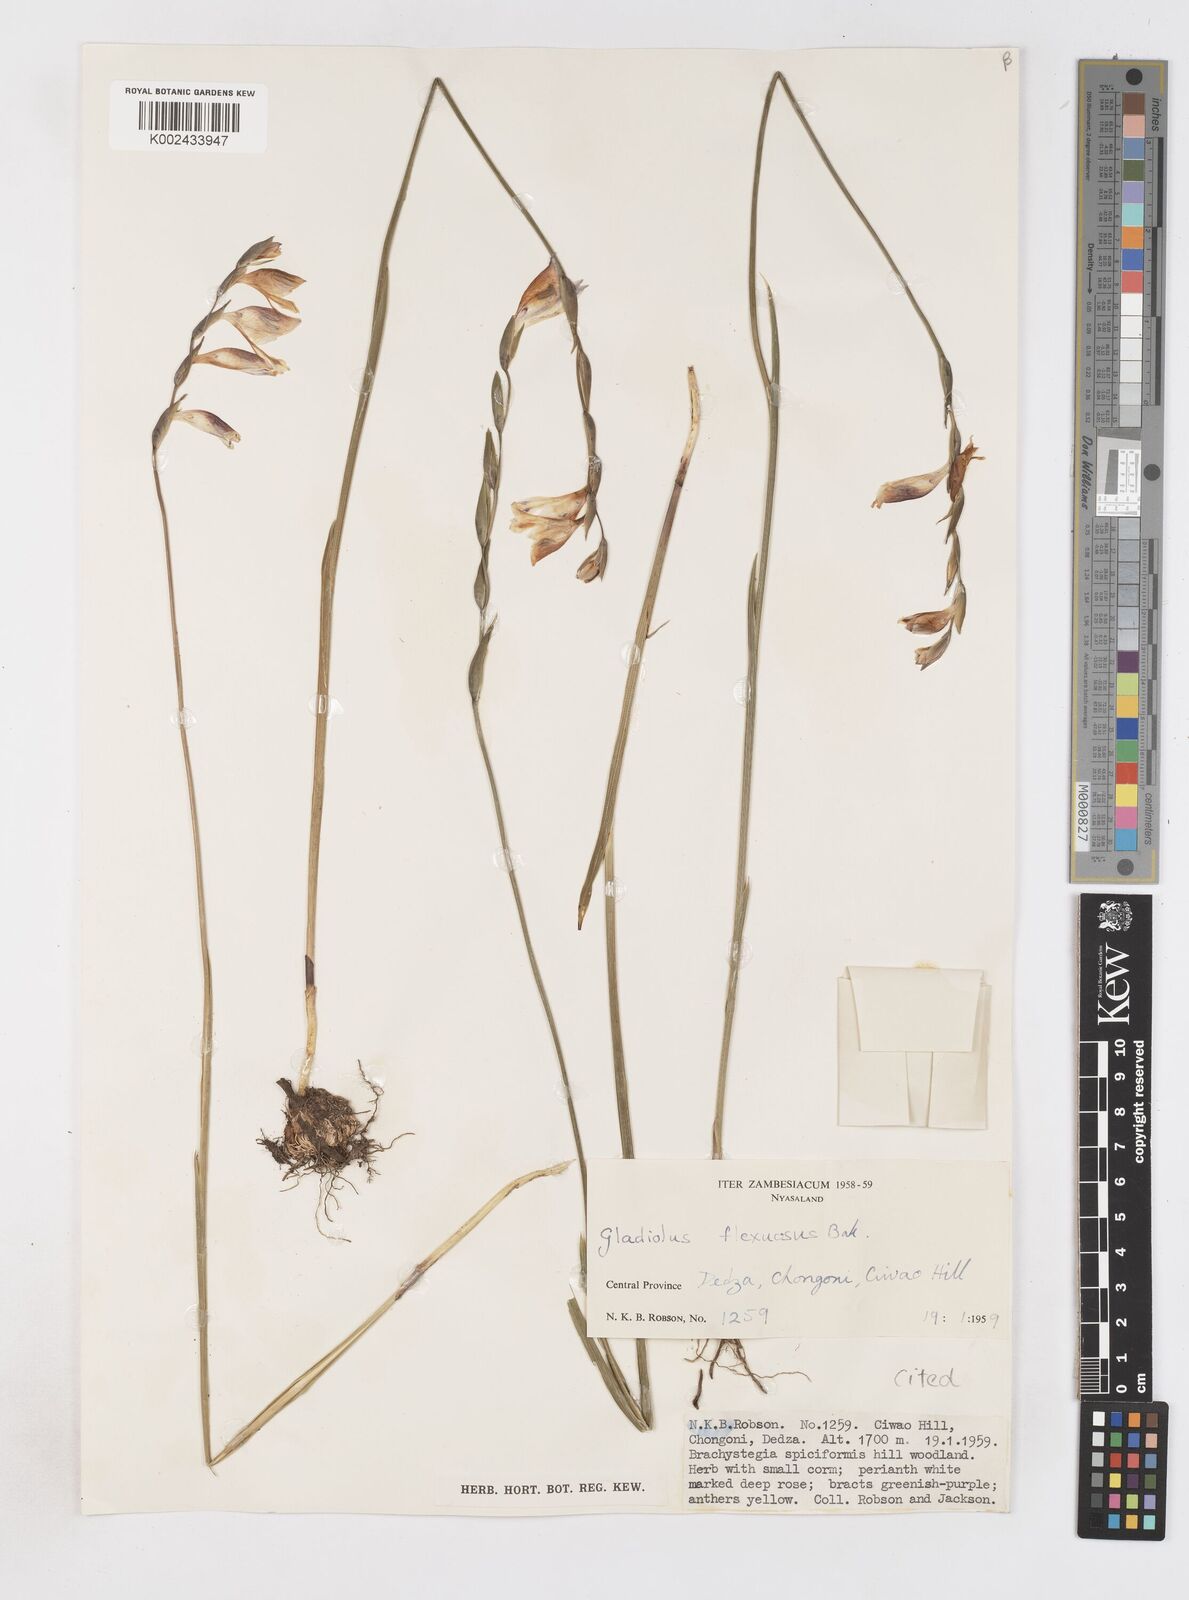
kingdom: Plantae
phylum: Tracheophyta
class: Liliopsida
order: Asparagales
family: Iridaceae
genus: Gladiolus
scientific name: Gladiolus atropurpureus
